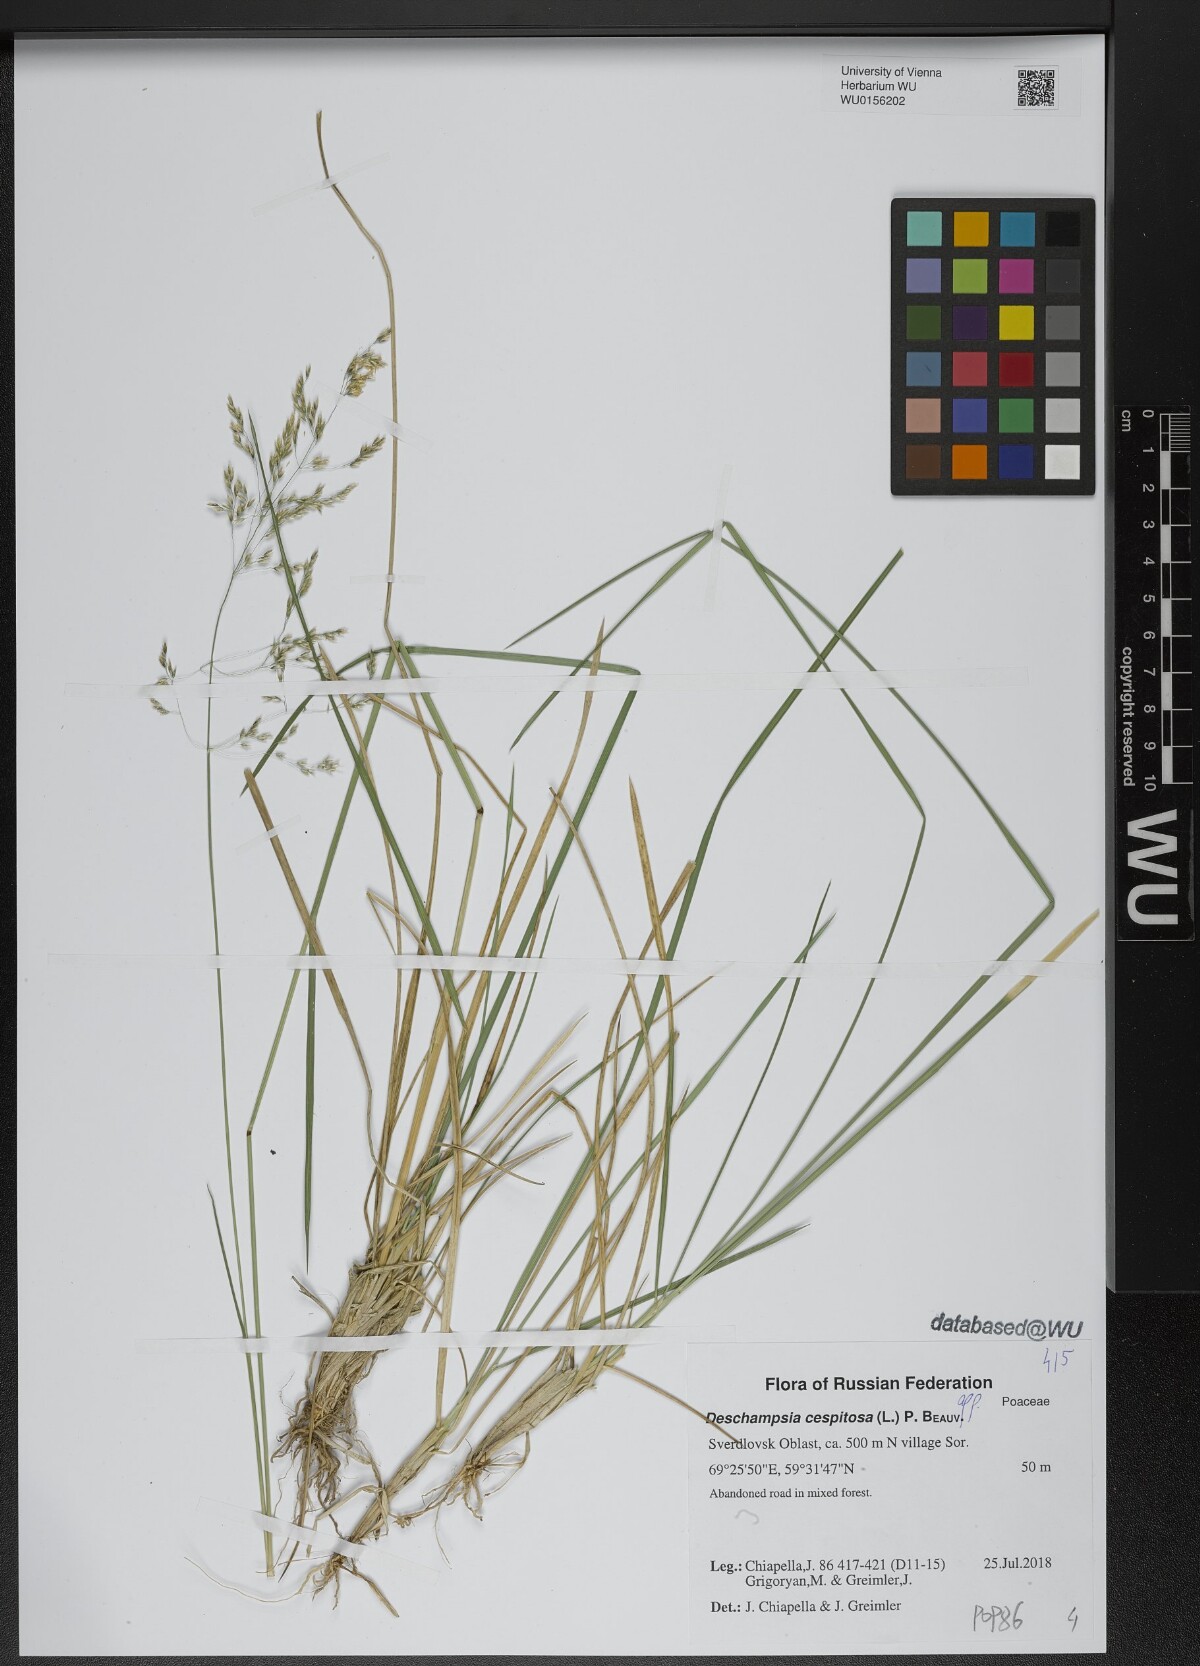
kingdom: Plantae
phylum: Tracheophyta
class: Liliopsida
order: Poales
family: Poaceae
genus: Deschampsia
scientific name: Deschampsia cespitosa
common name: Tufted hair-grass
